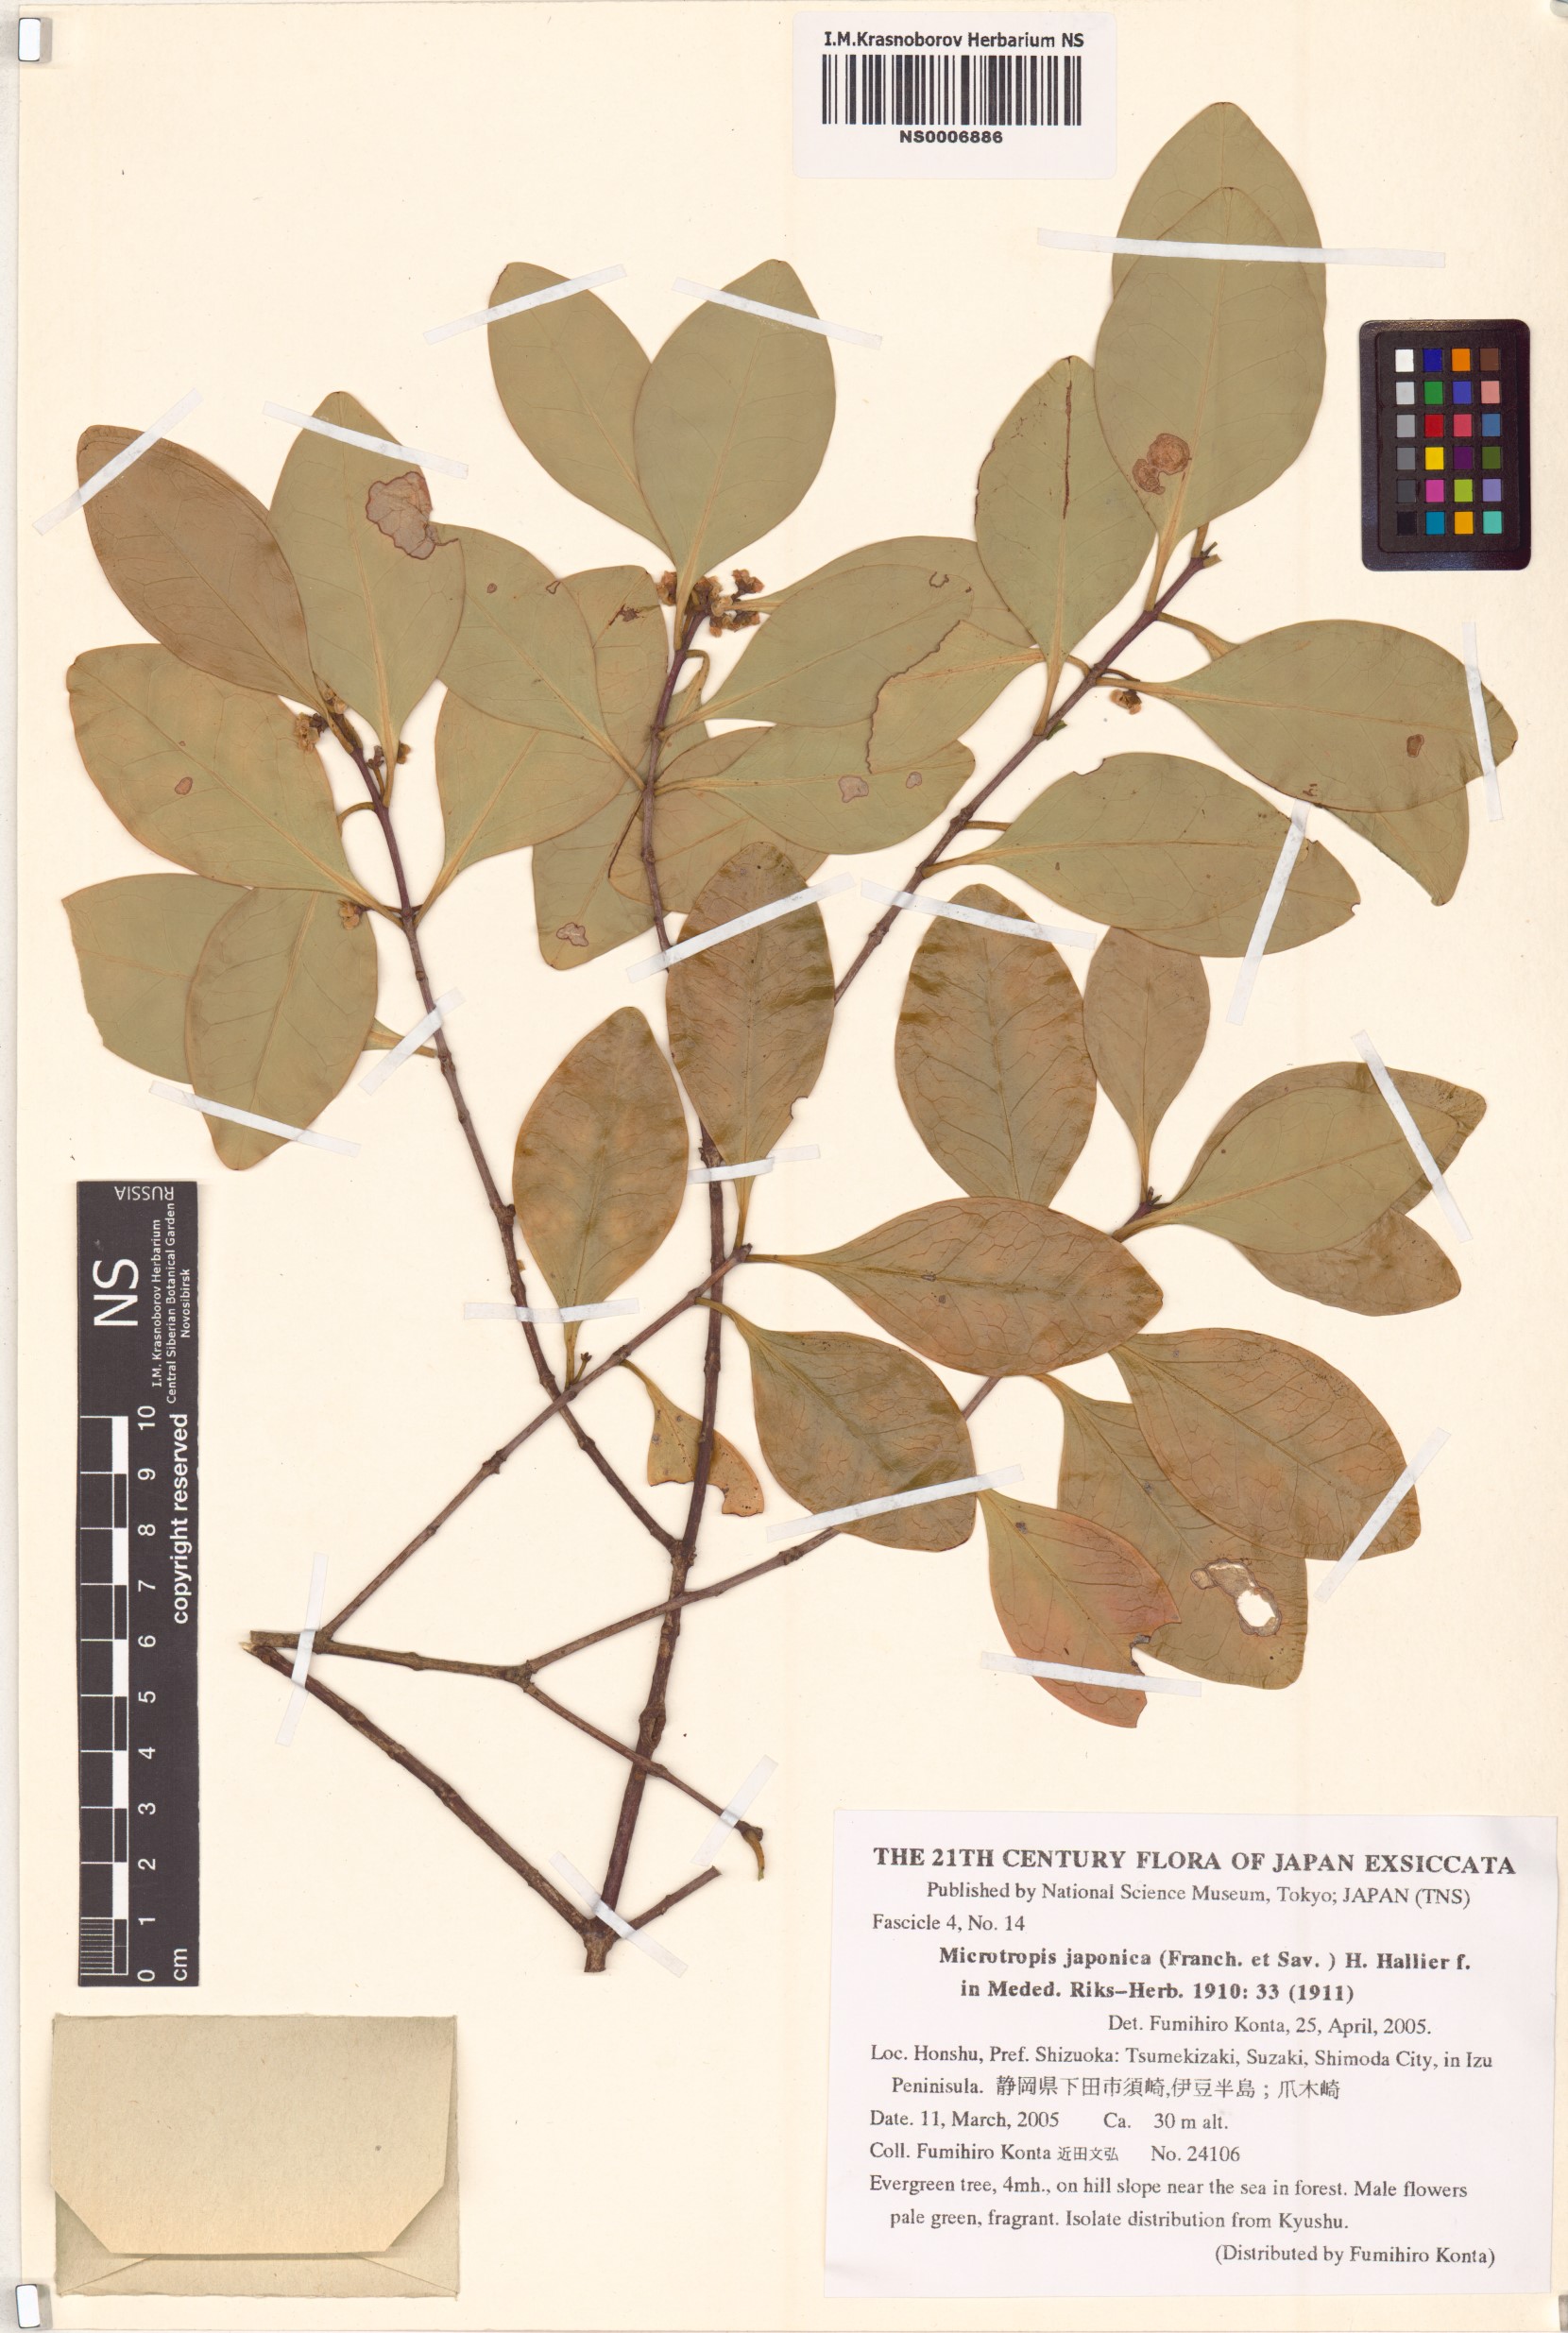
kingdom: Plantae
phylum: Tracheophyta
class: Magnoliopsida
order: Celastrales
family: Celastraceae
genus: Microtropis
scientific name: Microtropis japonica
